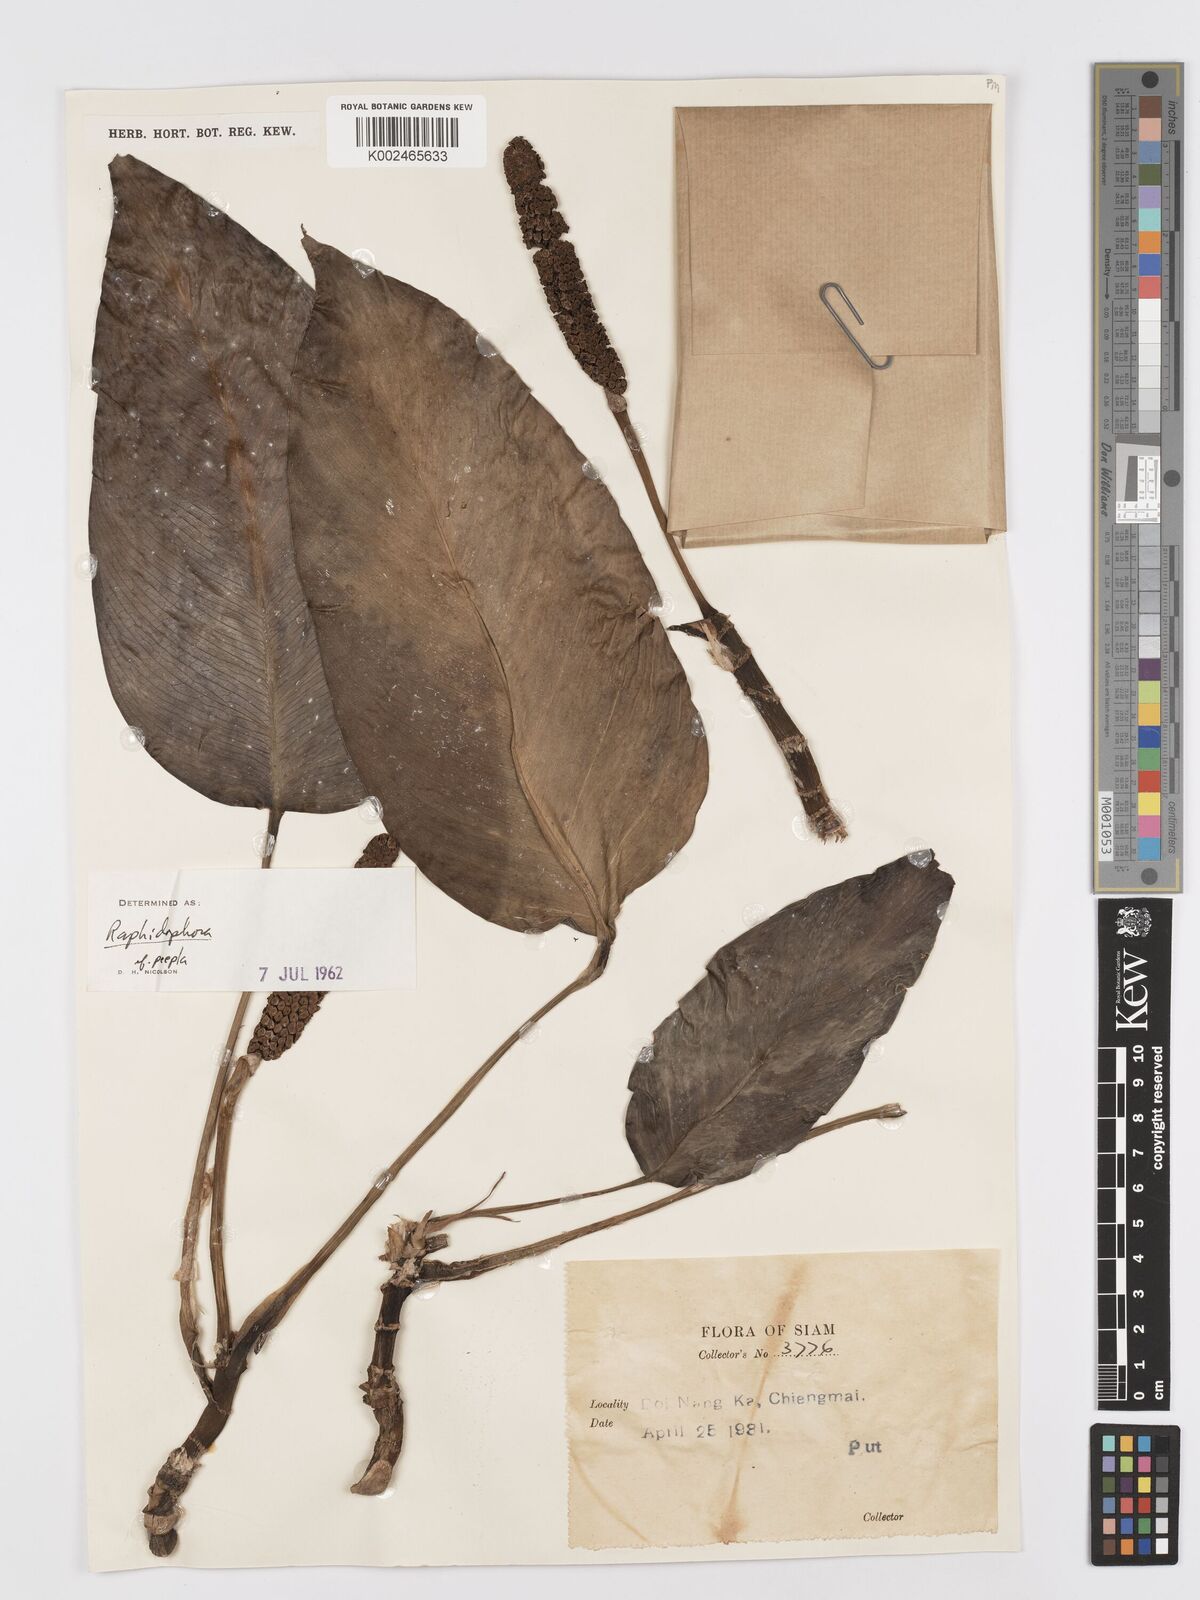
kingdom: Plantae
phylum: Tracheophyta
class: Liliopsida
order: Alismatales
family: Araceae
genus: Rhaphidophora
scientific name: Rhaphidophora peepla
